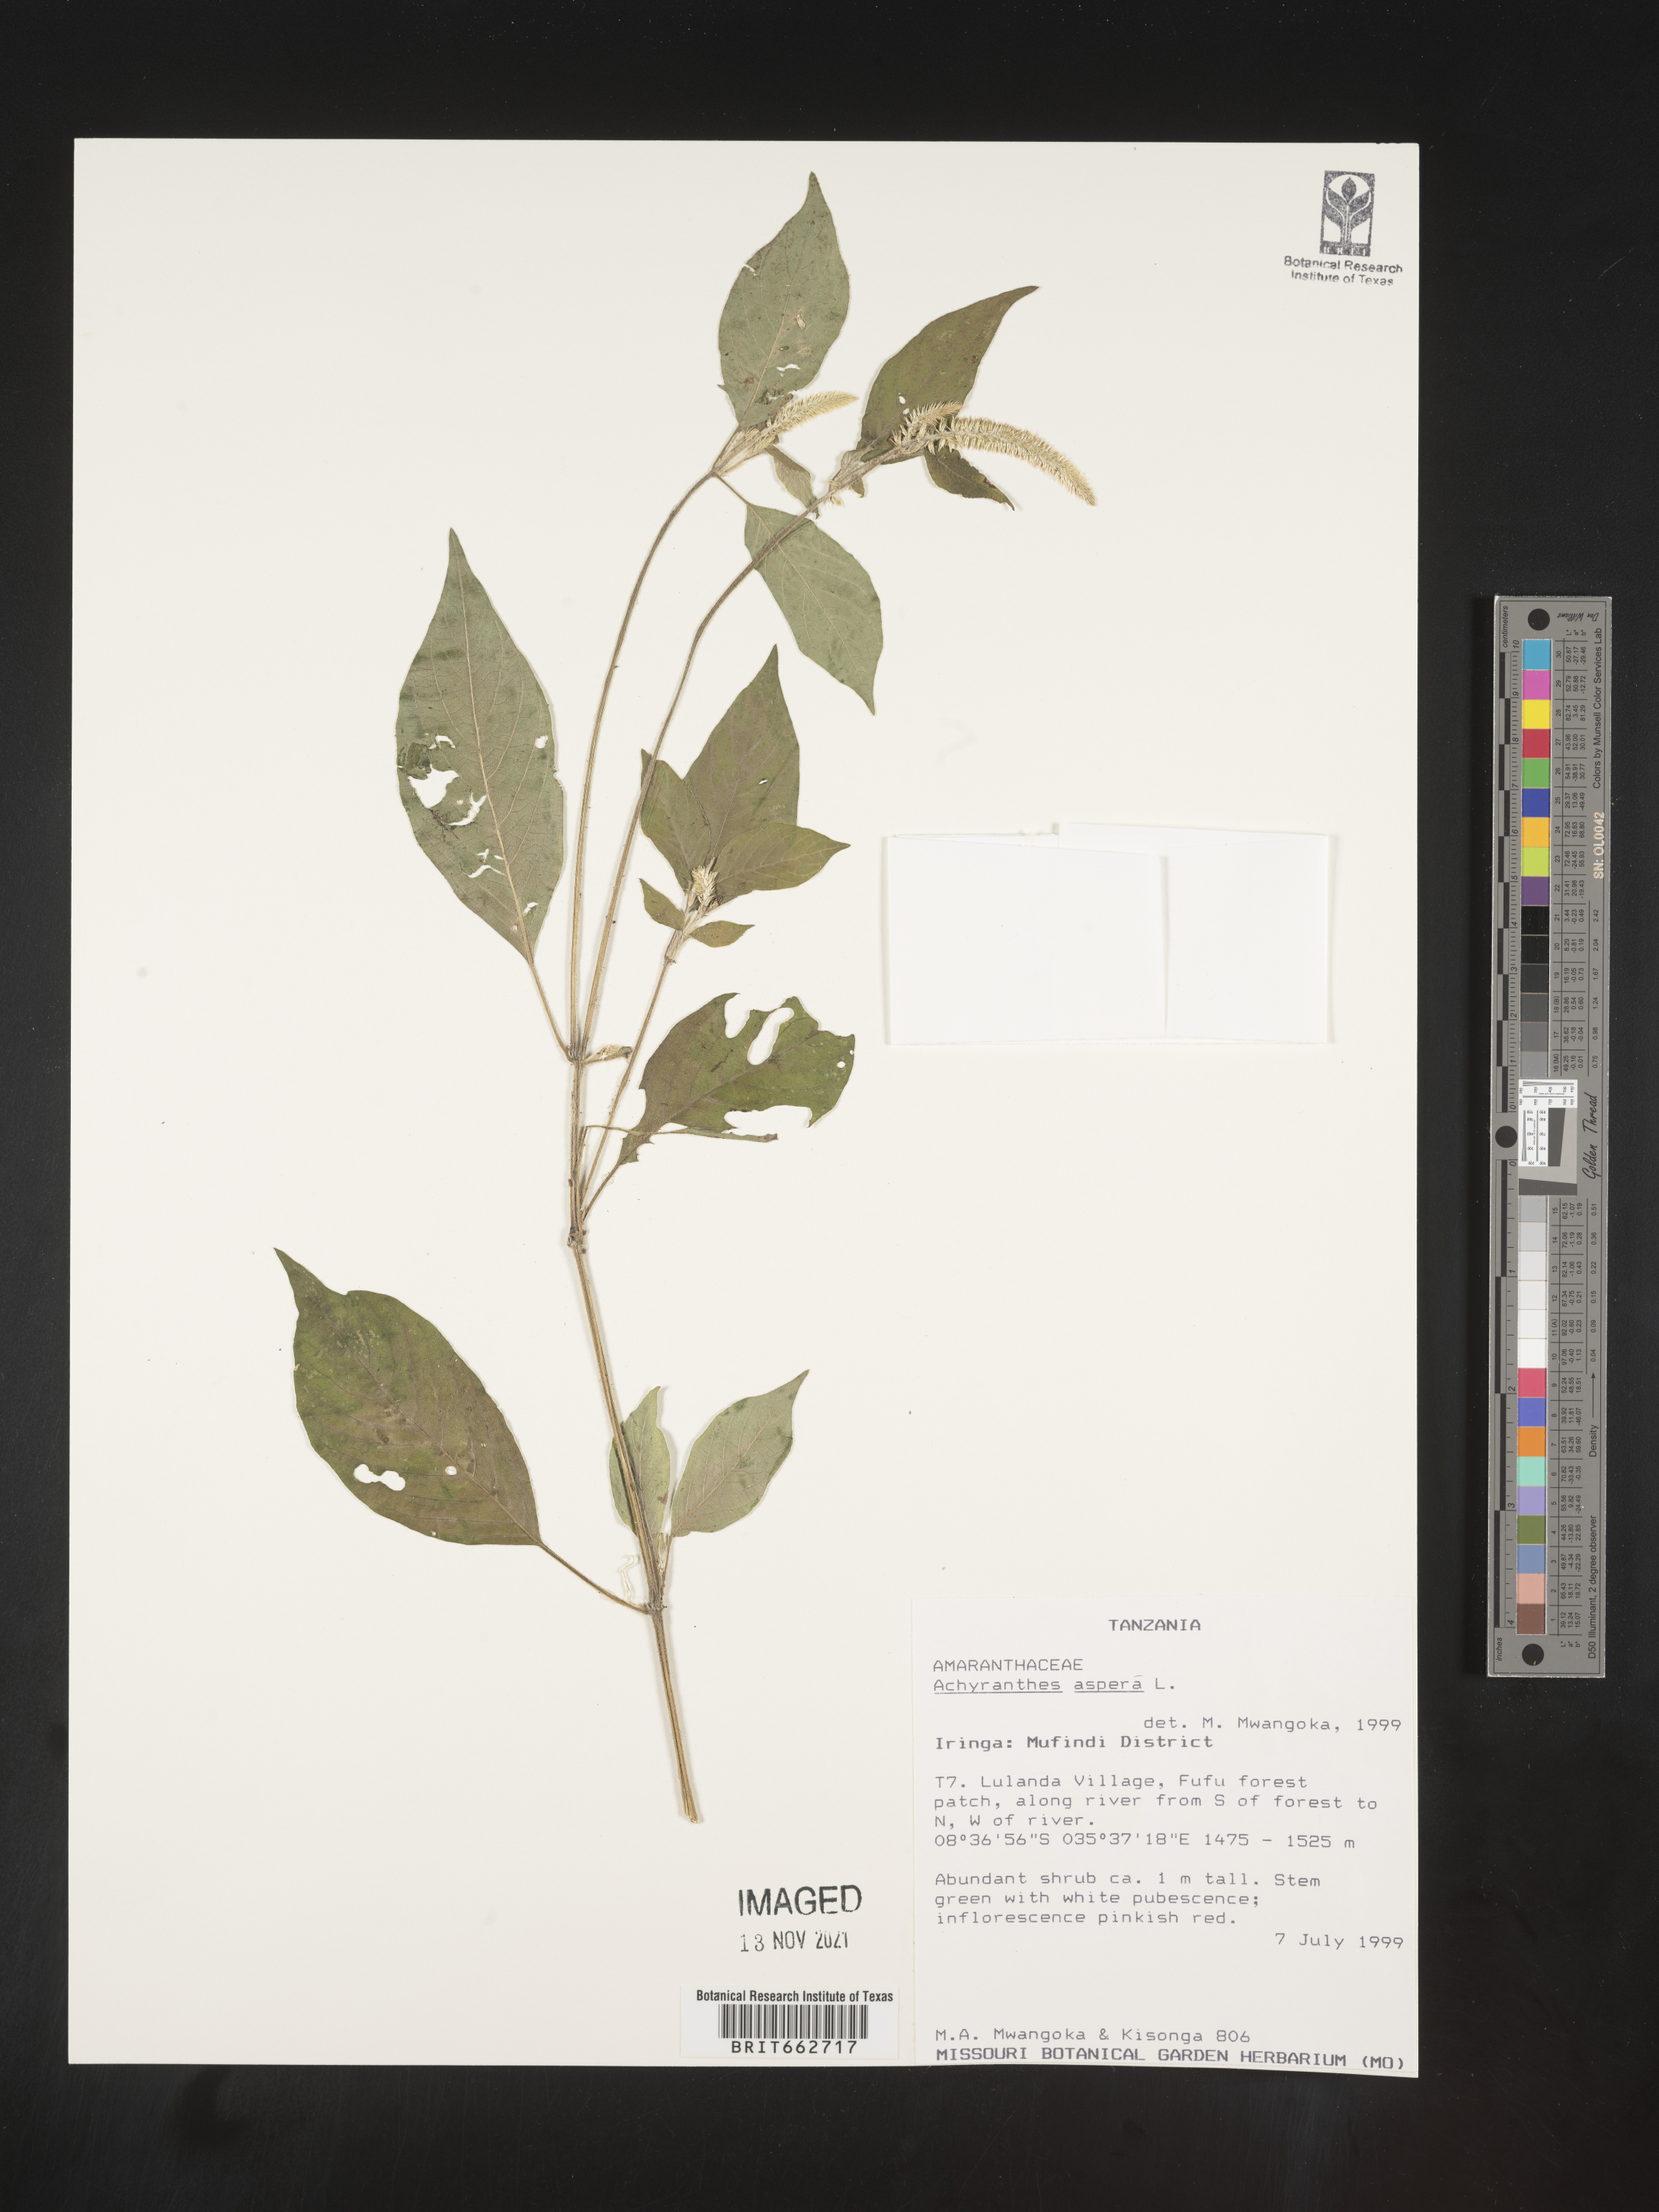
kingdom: Plantae
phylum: Tracheophyta
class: Magnoliopsida
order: Caryophyllales
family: Amaranthaceae
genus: Achyranthes
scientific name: Achyranthes
